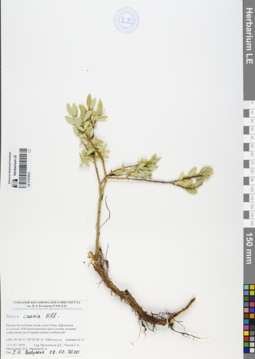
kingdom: Plantae
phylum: Tracheophyta
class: Magnoliopsida
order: Malpighiales
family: Salicaceae
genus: Salix
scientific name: Salix caesia
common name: Blue willow
